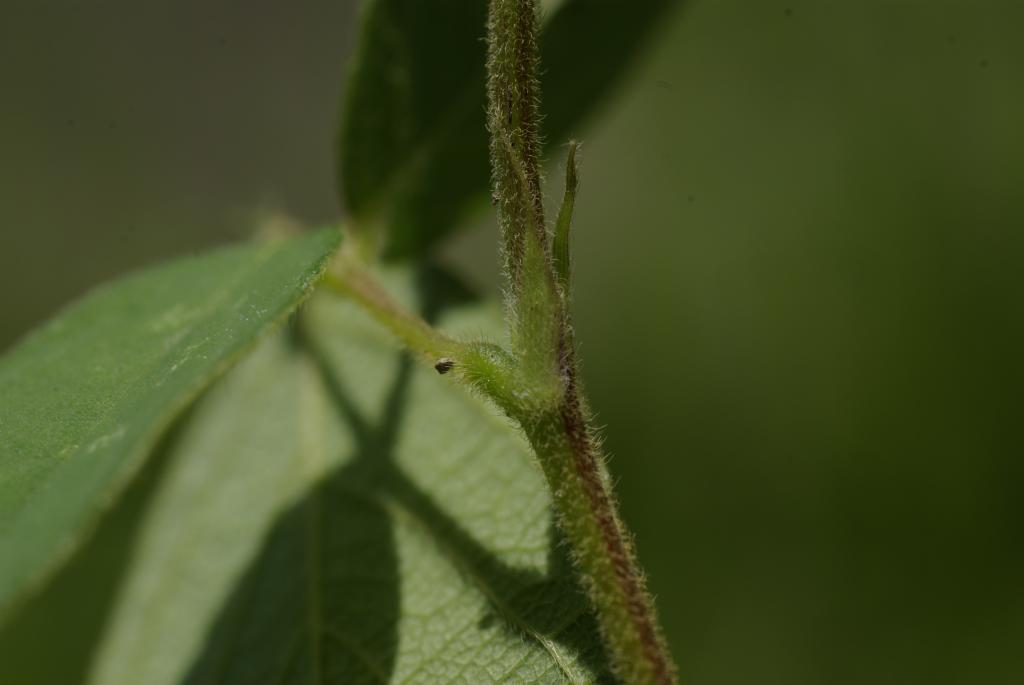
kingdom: Plantae
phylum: Tracheophyta
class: Magnoliopsida
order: Fabales
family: Fabaceae
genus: Pycnospora
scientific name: Pycnospora lutescens
